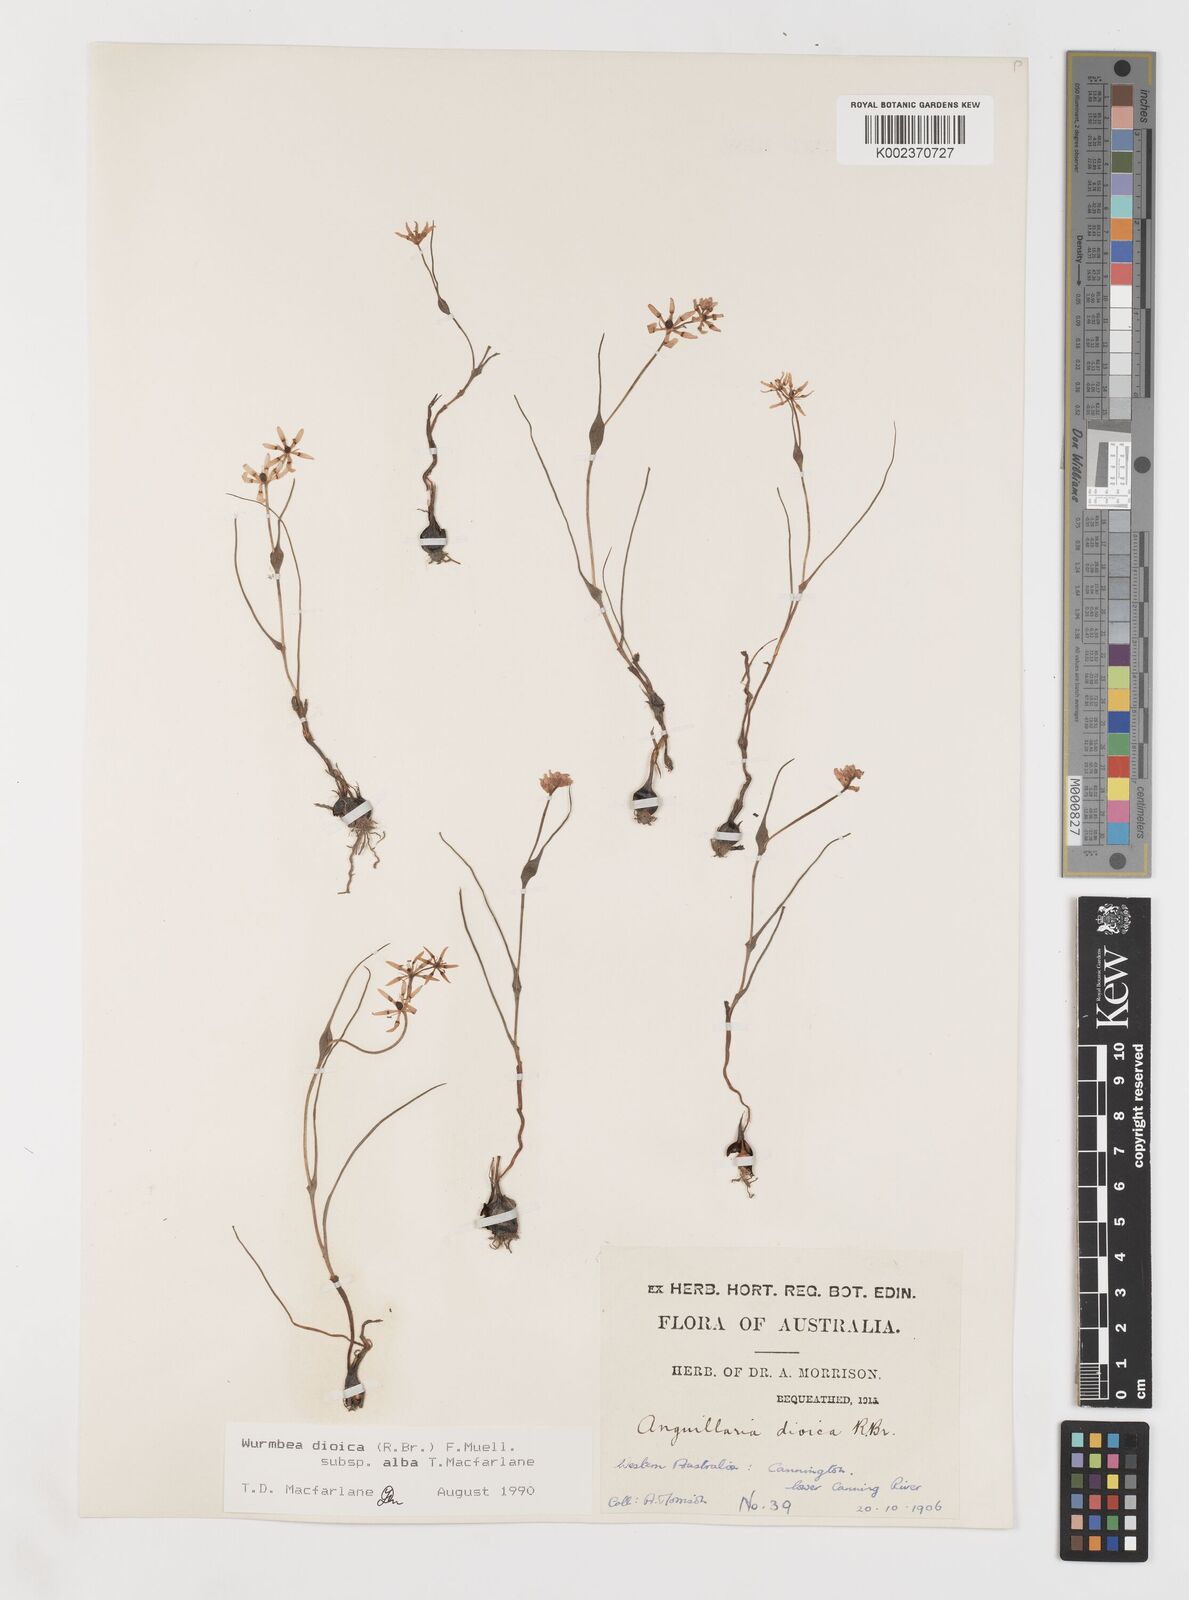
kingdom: Plantae
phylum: Tracheophyta
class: Liliopsida
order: Liliales
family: Colchicaceae
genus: Wurmbea
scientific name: Wurmbea dioica
